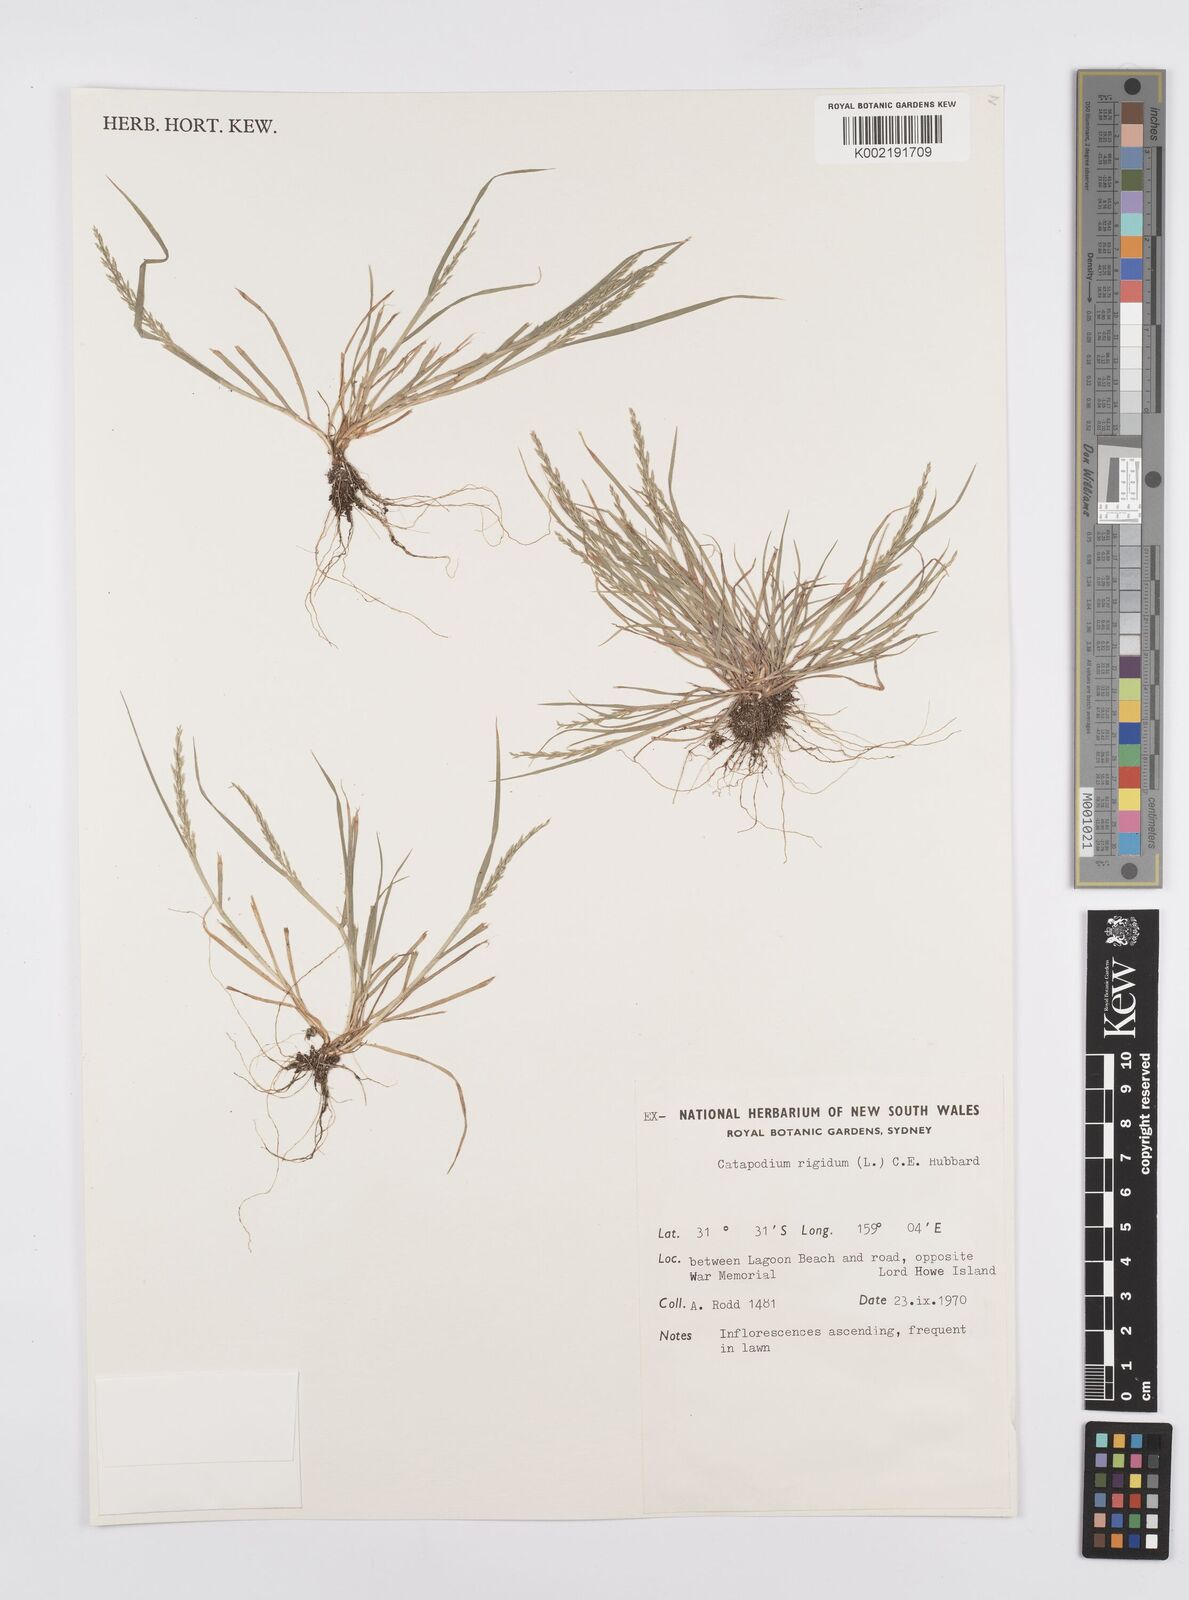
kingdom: Plantae
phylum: Tracheophyta
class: Liliopsida
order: Poales
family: Poaceae
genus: Catapodium
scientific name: Catapodium rigidum
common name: Fern-grass
